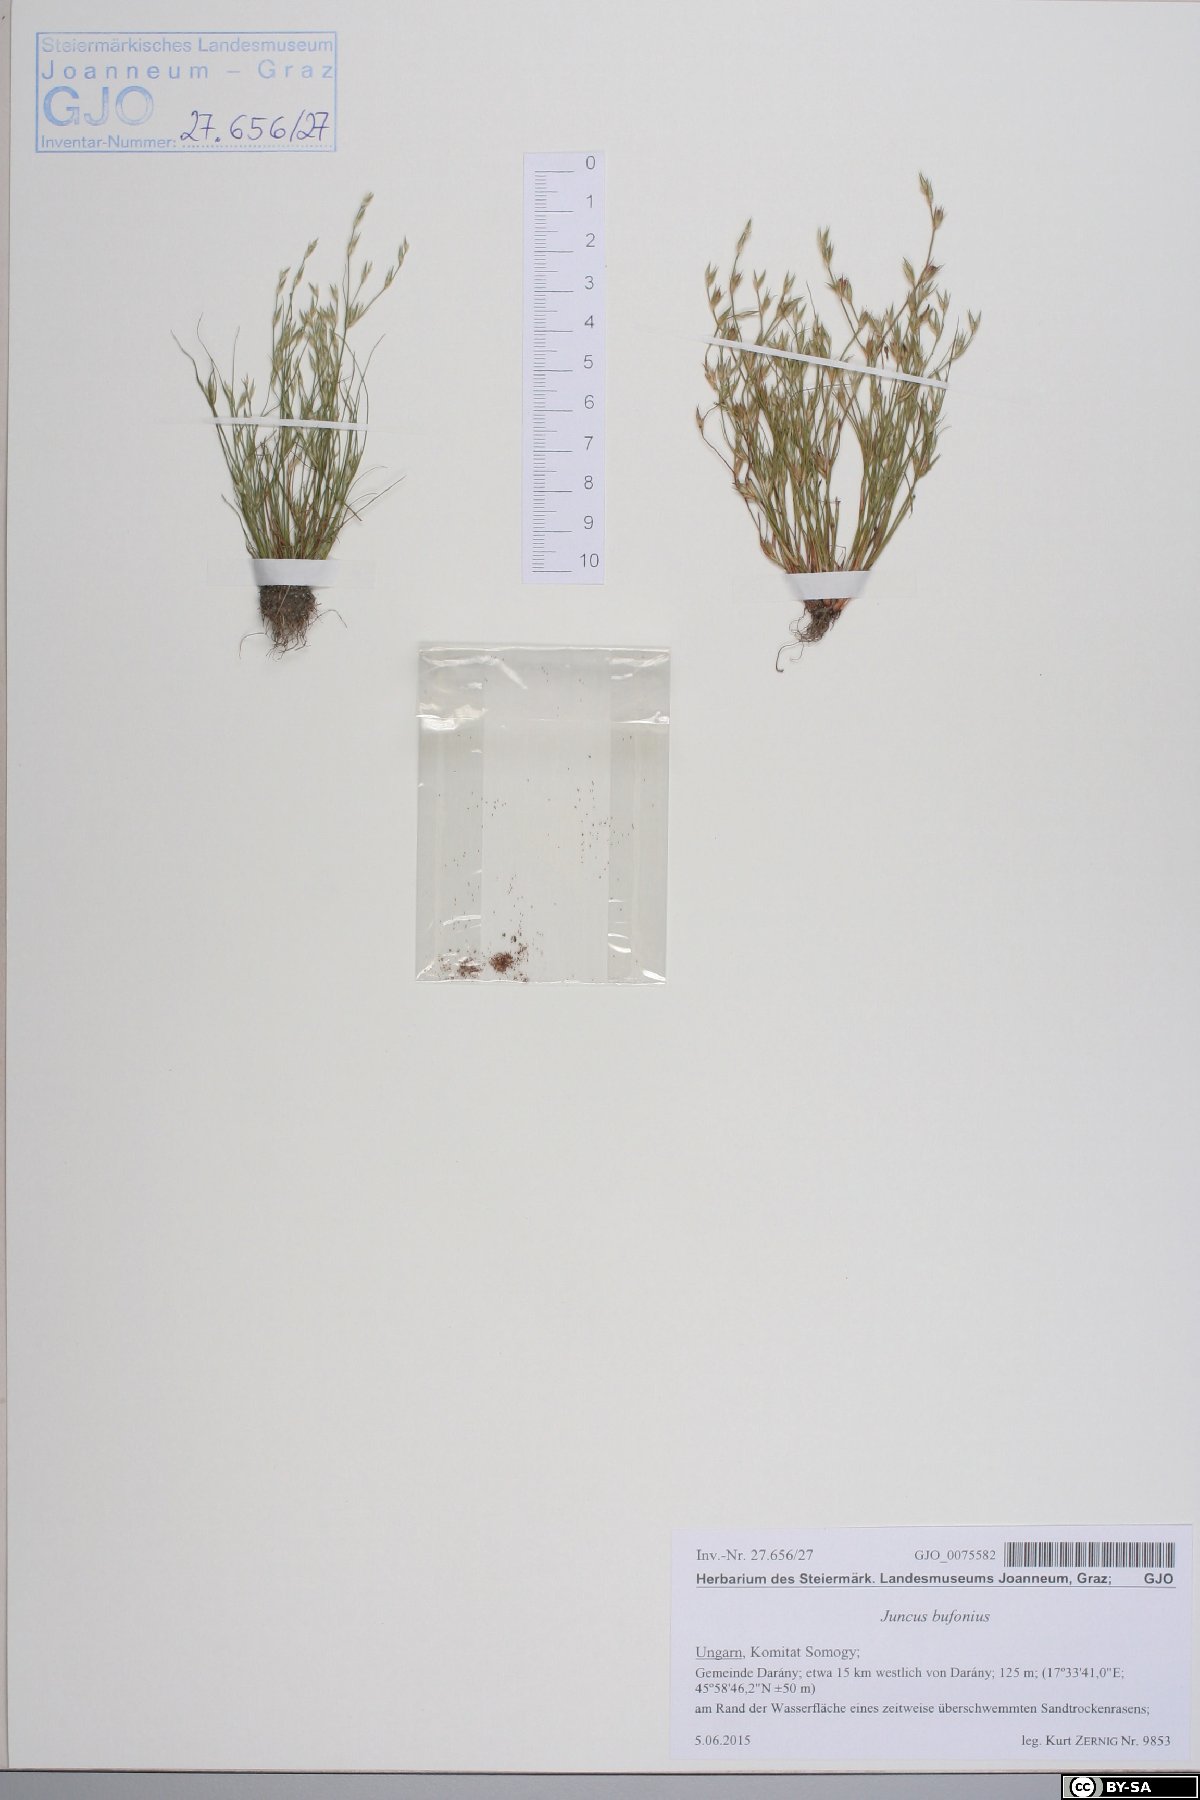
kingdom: Plantae
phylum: Tracheophyta
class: Liliopsida
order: Poales
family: Juncaceae
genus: Juncus
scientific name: Juncus bufonius
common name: Toad rush
